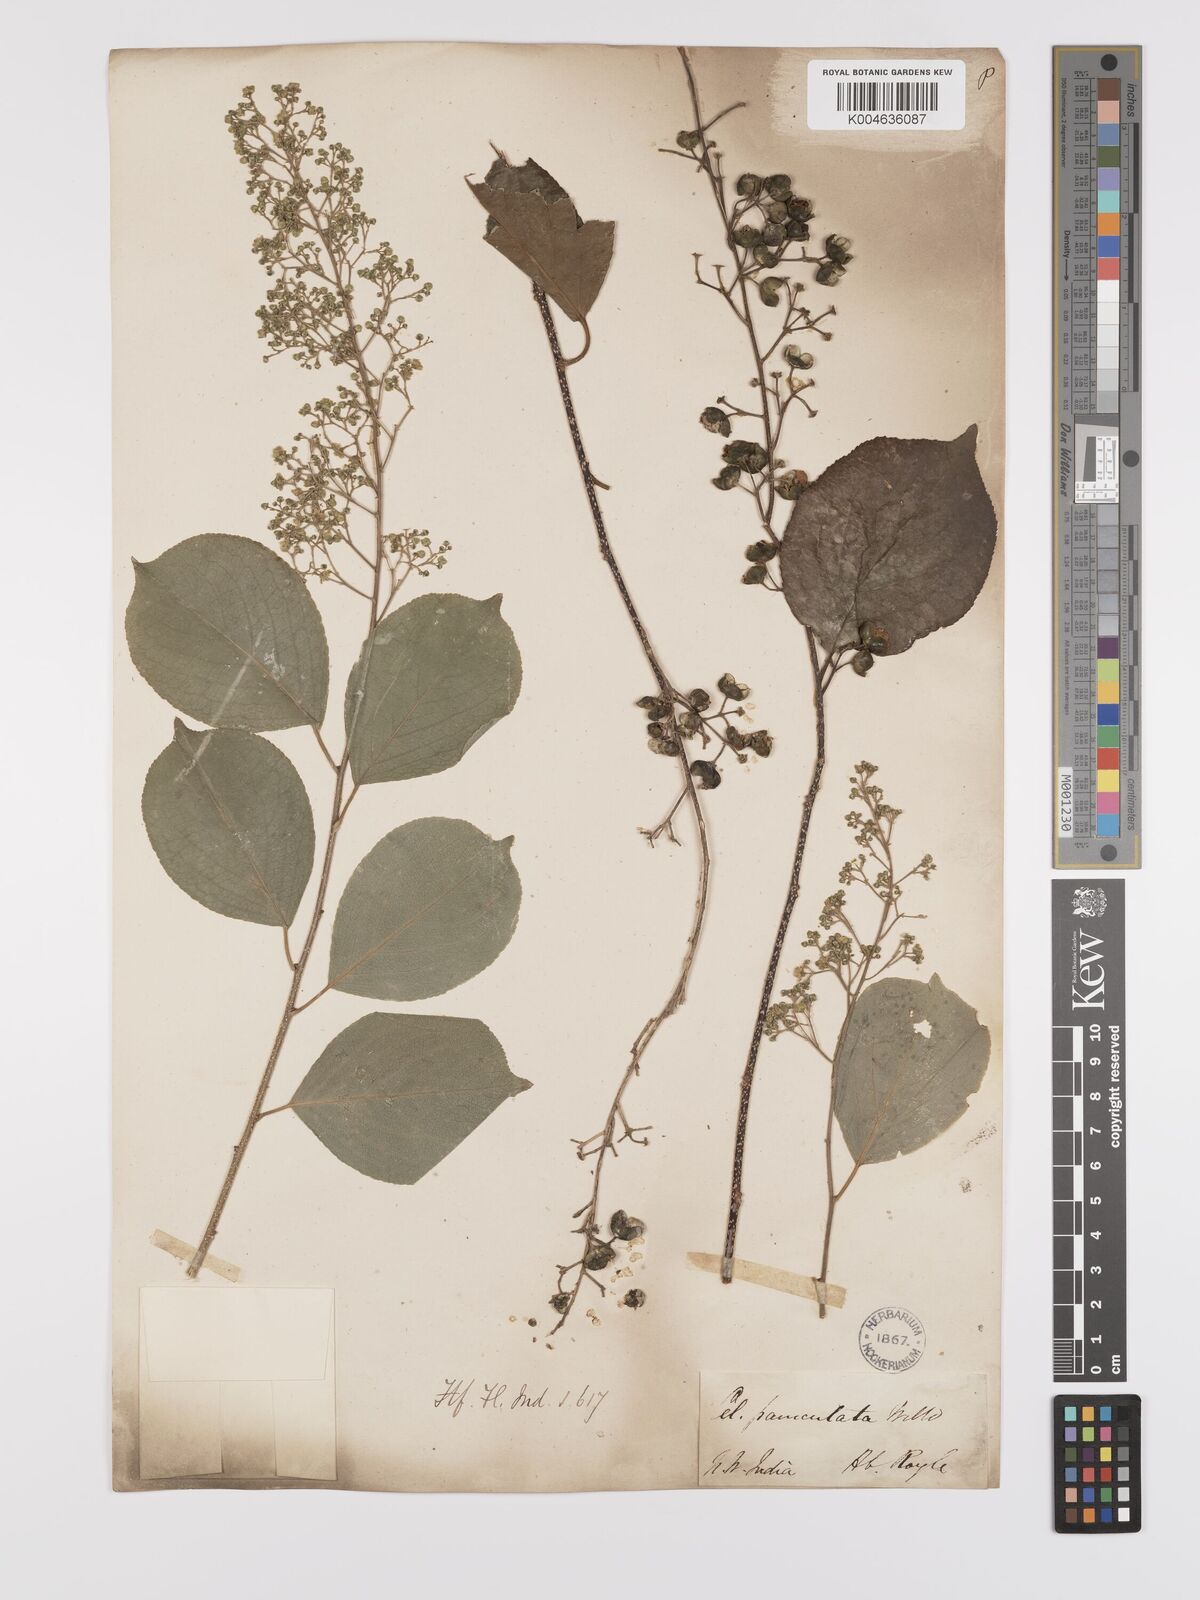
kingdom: Plantae
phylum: Tracheophyta
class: Magnoliopsida
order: Celastrales
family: Celastraceae
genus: Celastrus
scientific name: Celastrus paniculatus
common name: Oriental bittersweet; staff vine
